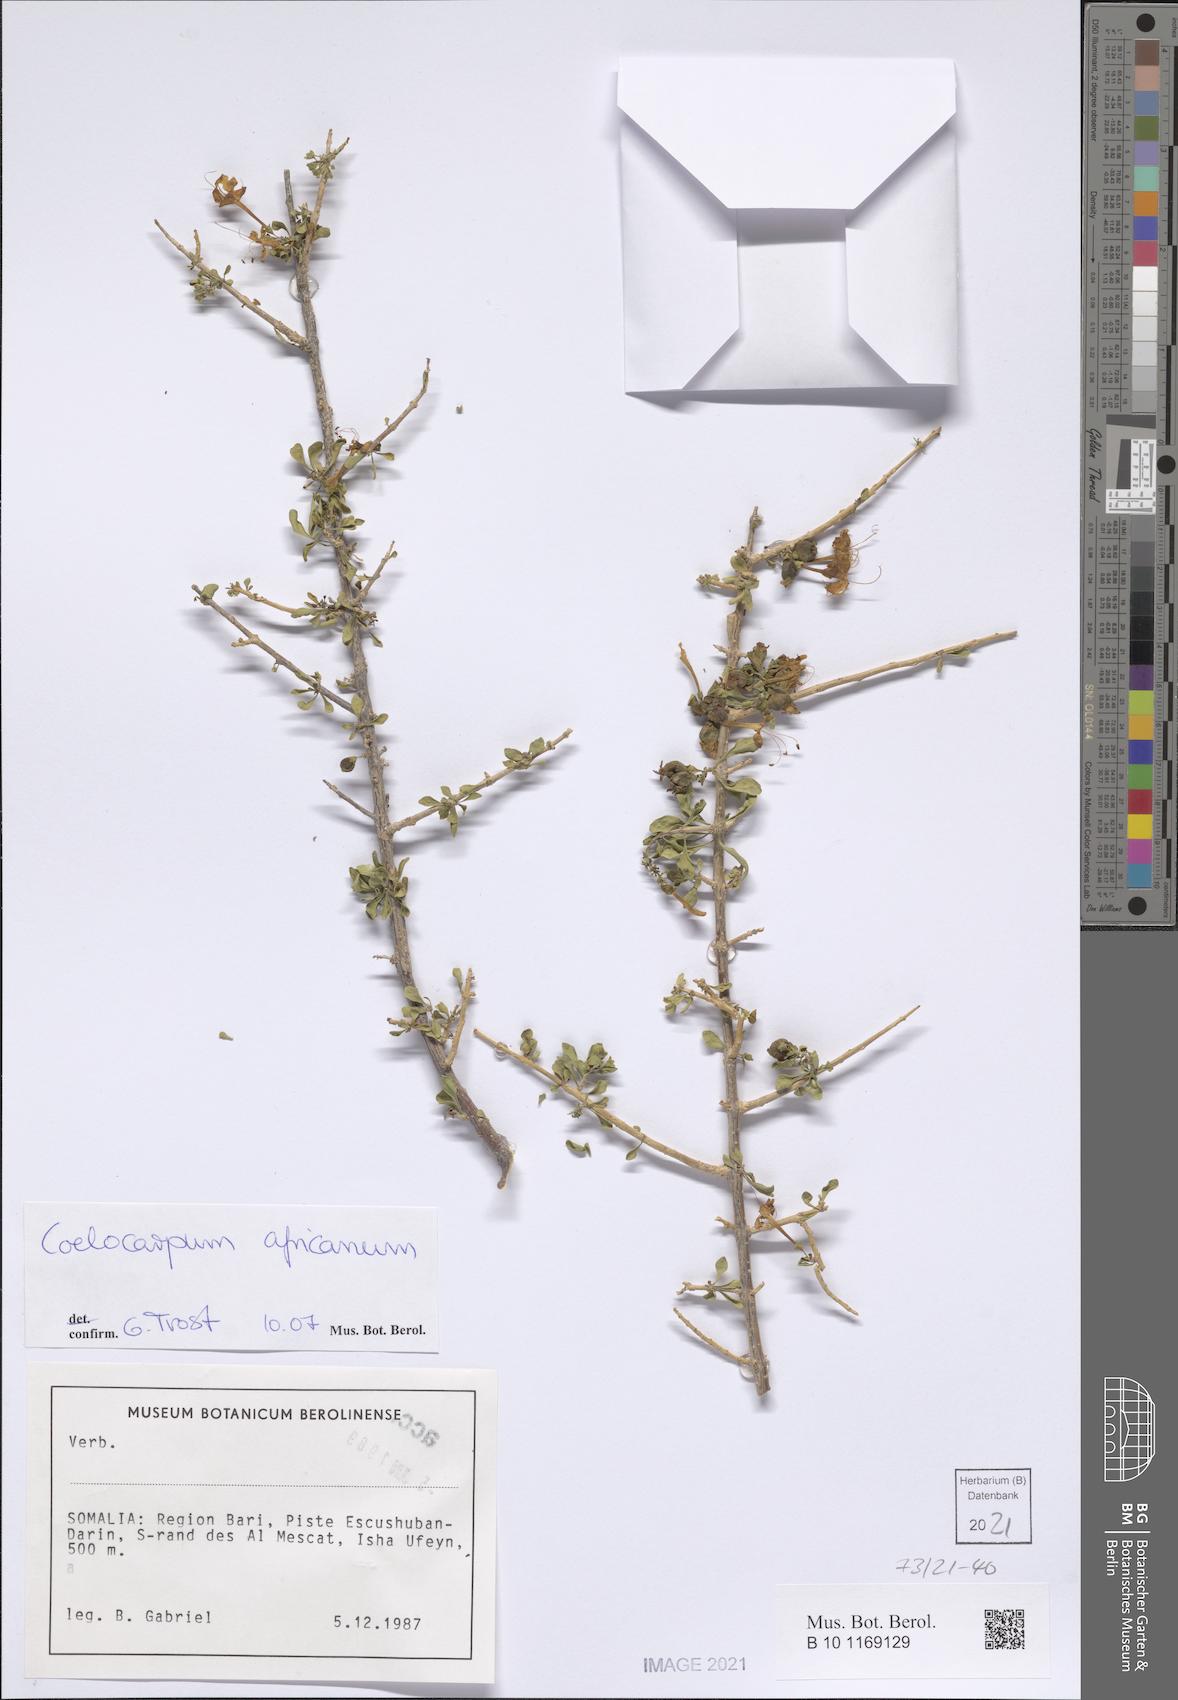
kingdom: Plantae
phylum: Tracheophyta
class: Magnoliopsida
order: Lamiales
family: Verbenaceae
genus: Coelocarpum
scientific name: Coelocarpum africanum
